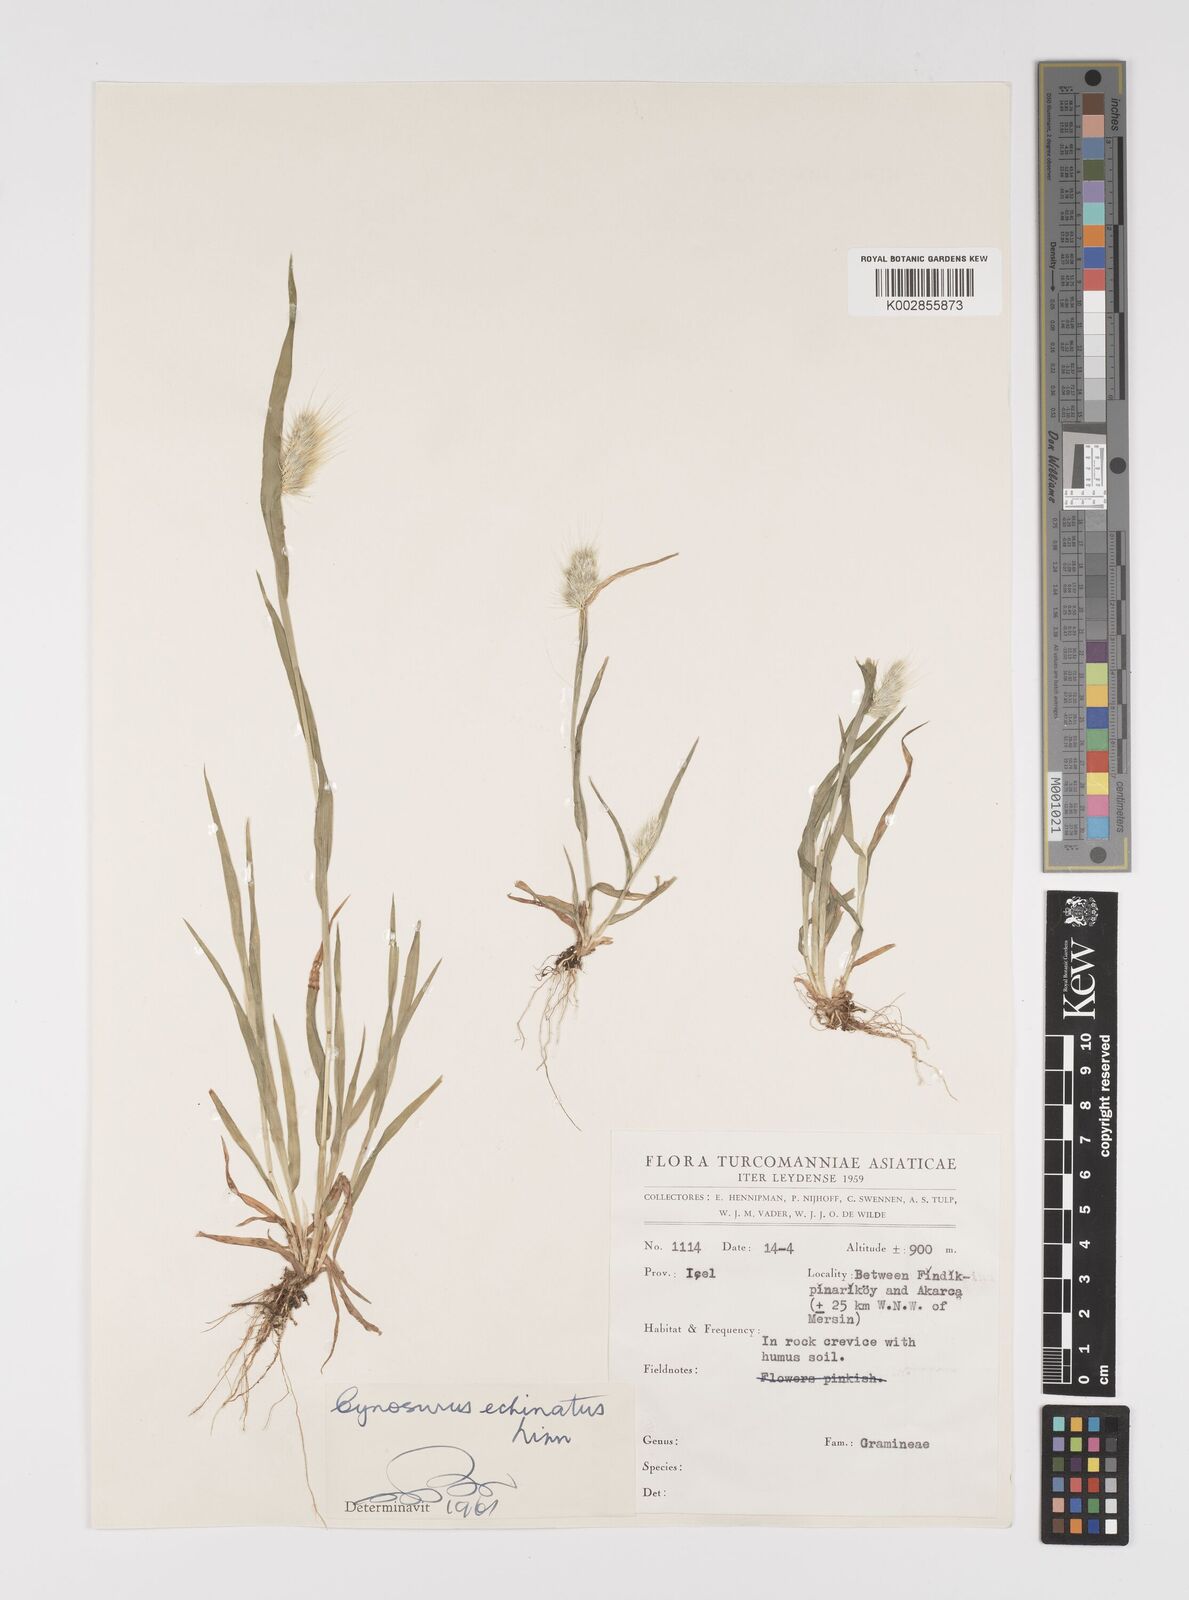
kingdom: Plantae
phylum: Tracheophyta
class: Liliopsida
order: Poales
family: Poaceae
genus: Cynosurus
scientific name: Cynosurus echinatus
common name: Rough dog's-tail
